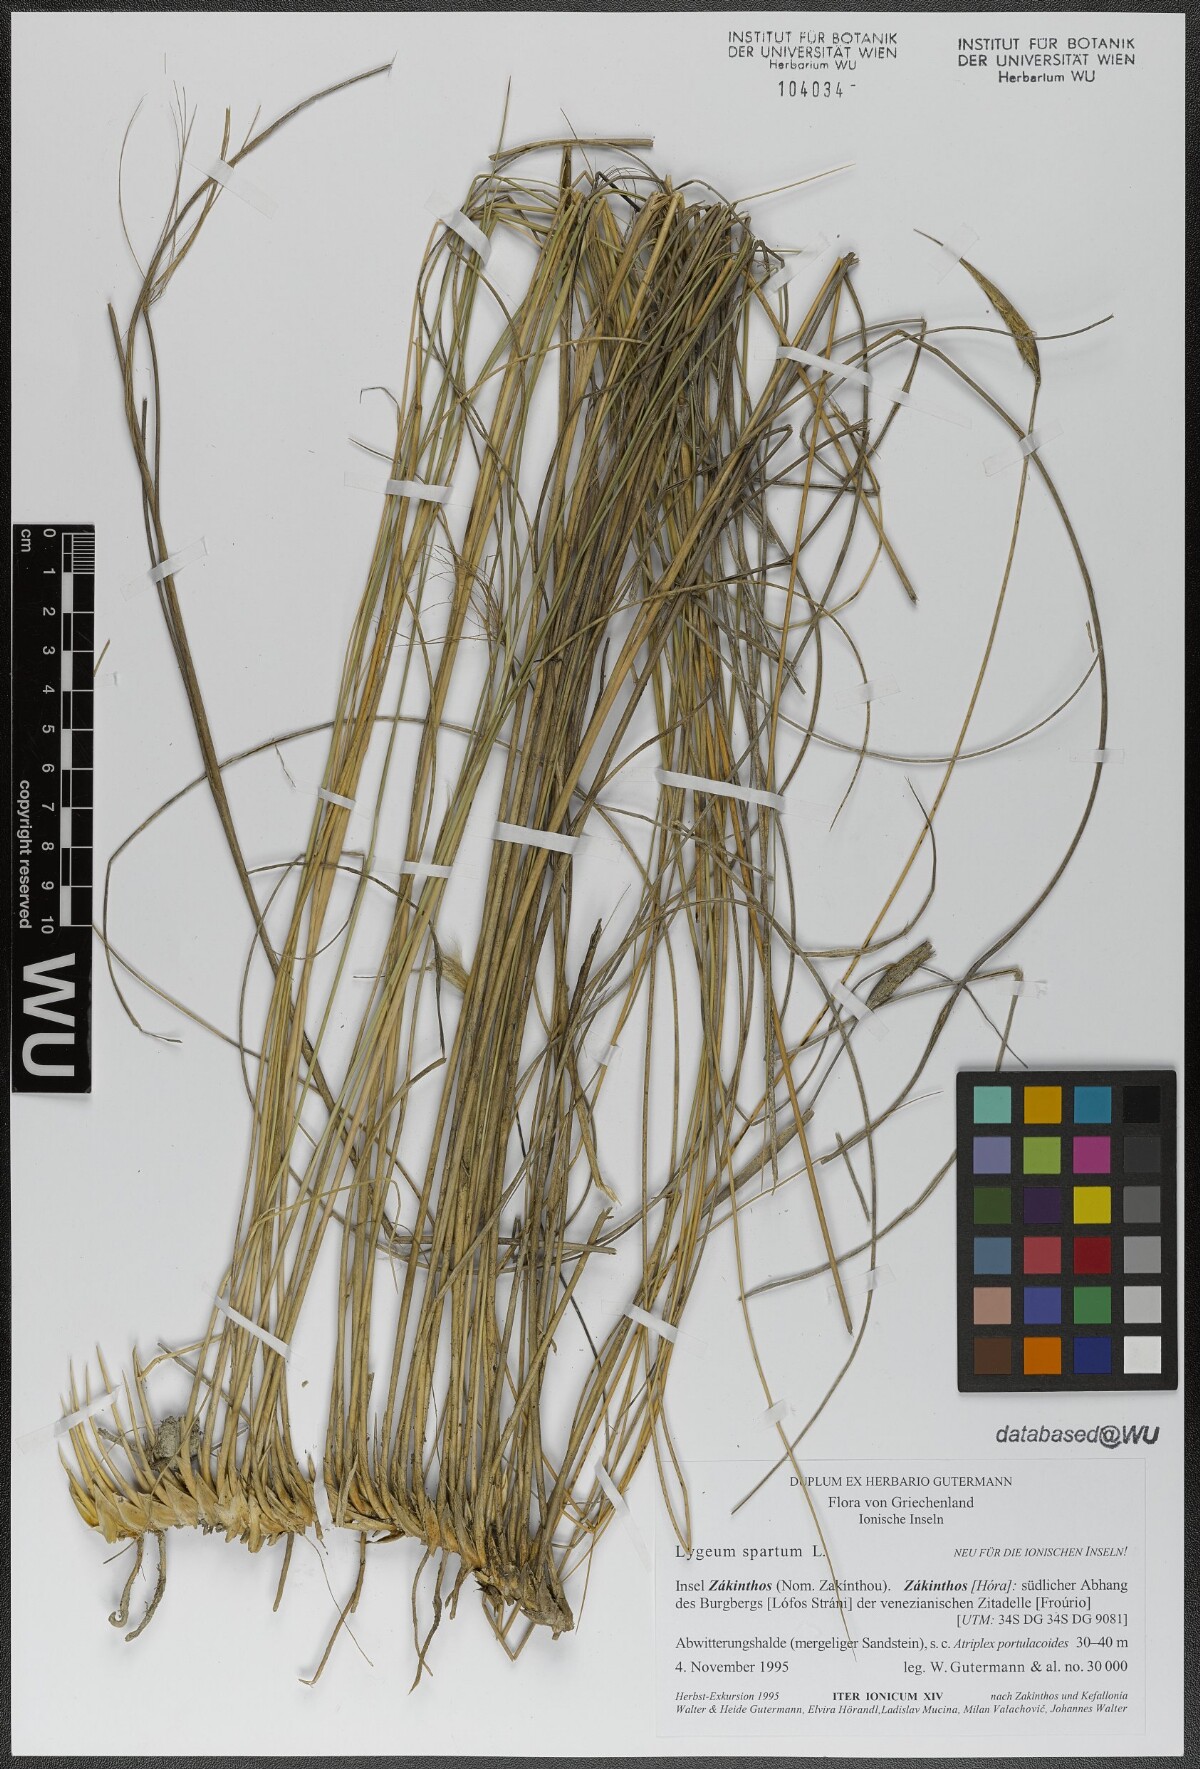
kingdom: Plantae
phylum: Tracheophyta
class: Liliopsida
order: Poales
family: Poaceae
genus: Lygeum
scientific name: Lygeum spartum
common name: Albardine
